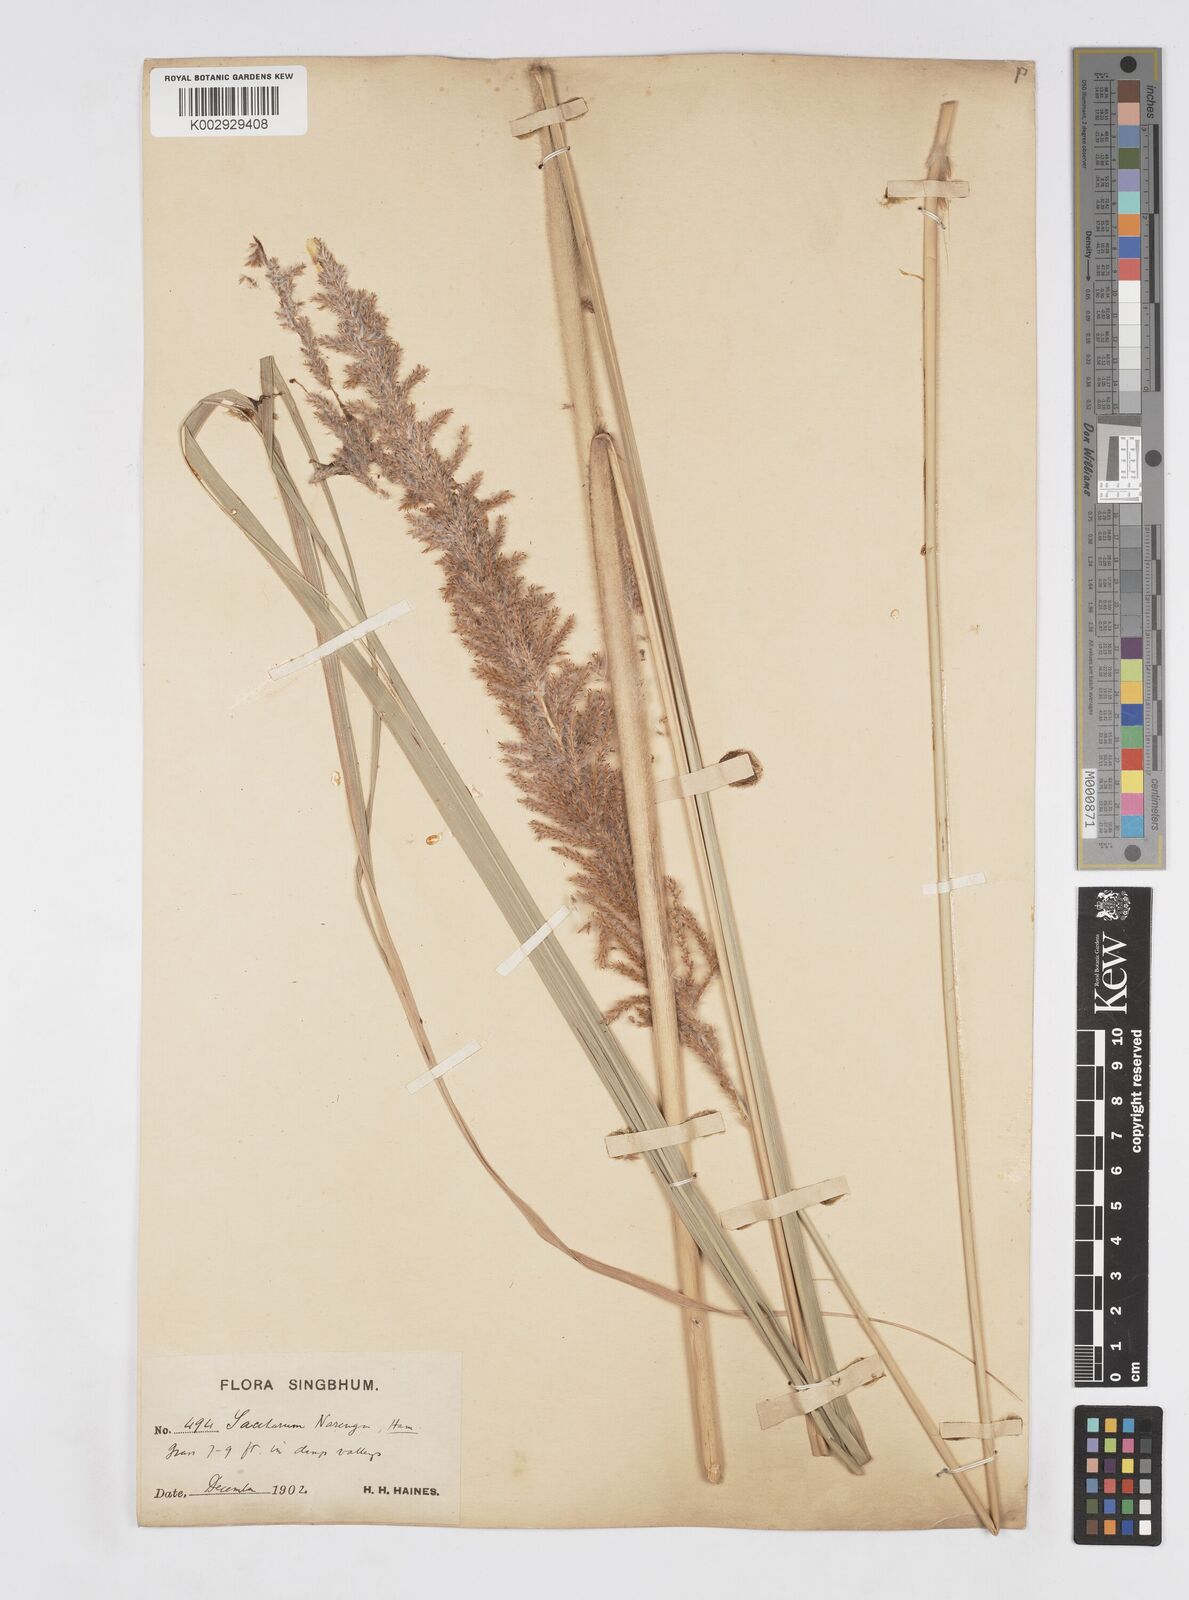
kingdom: Plantae
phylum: Tracheophyta
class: Liliopsida
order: Poales
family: Poaceae
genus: Narenga
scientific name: Narenga porphyrocoma
